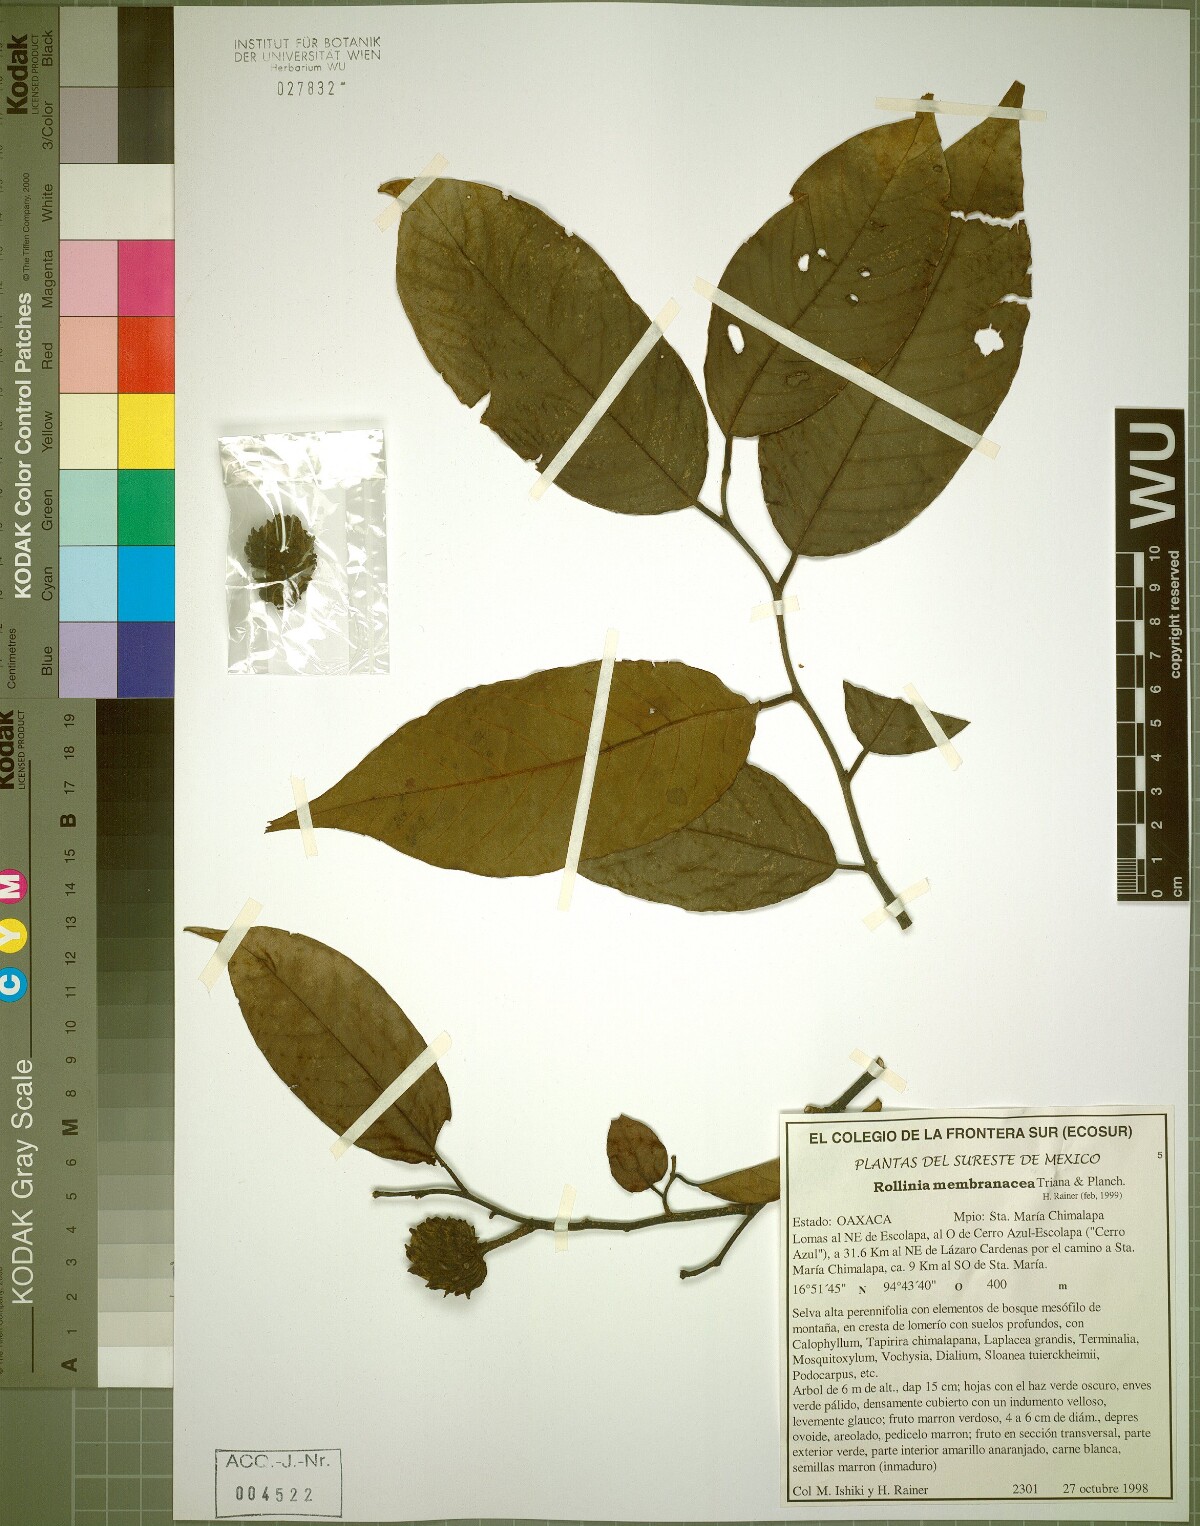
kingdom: Plantae
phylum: Tracheophyta
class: Magnoliopsida
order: Magnoliales
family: Annonaceae
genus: Annona
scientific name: Annona rensoniana
